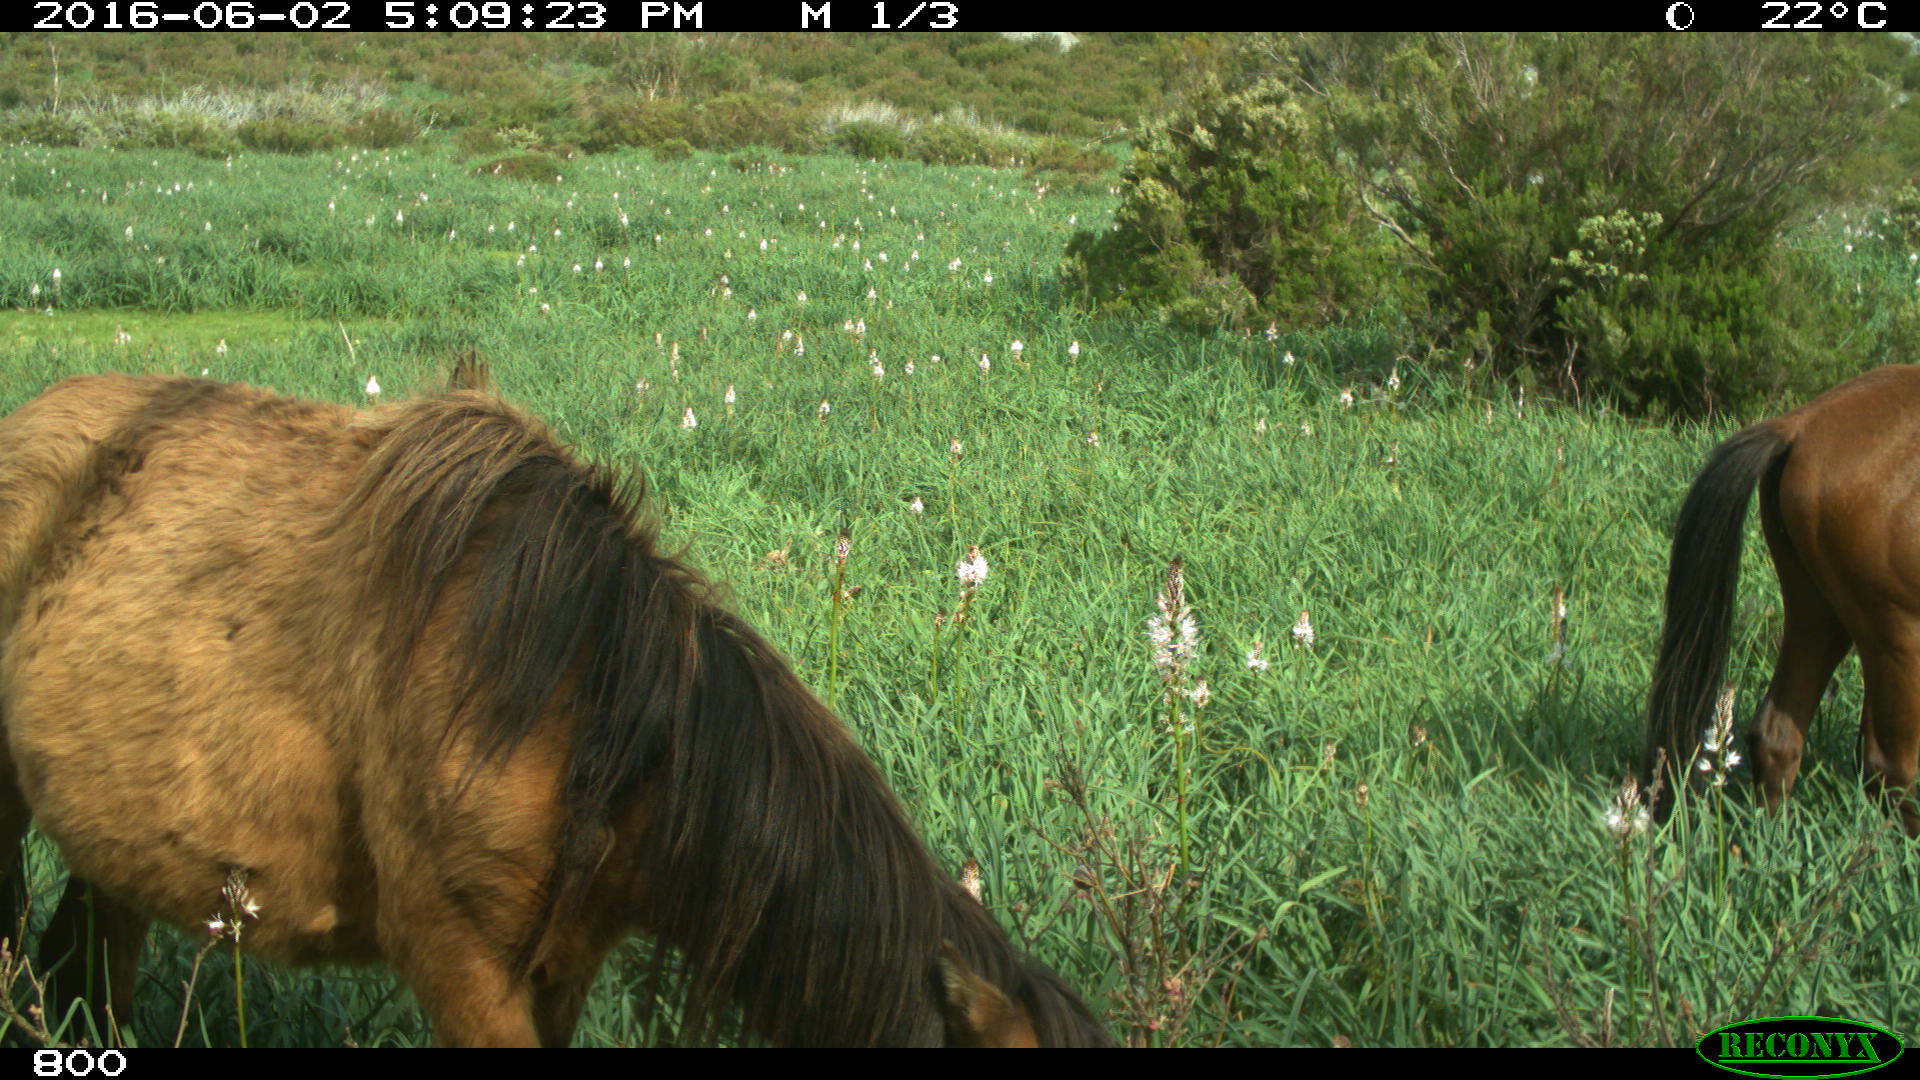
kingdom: Animalia
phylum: Chordata
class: Mammalia
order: Perissodactyla
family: Equidae
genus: Equus
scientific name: Equus caballus
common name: Horse
